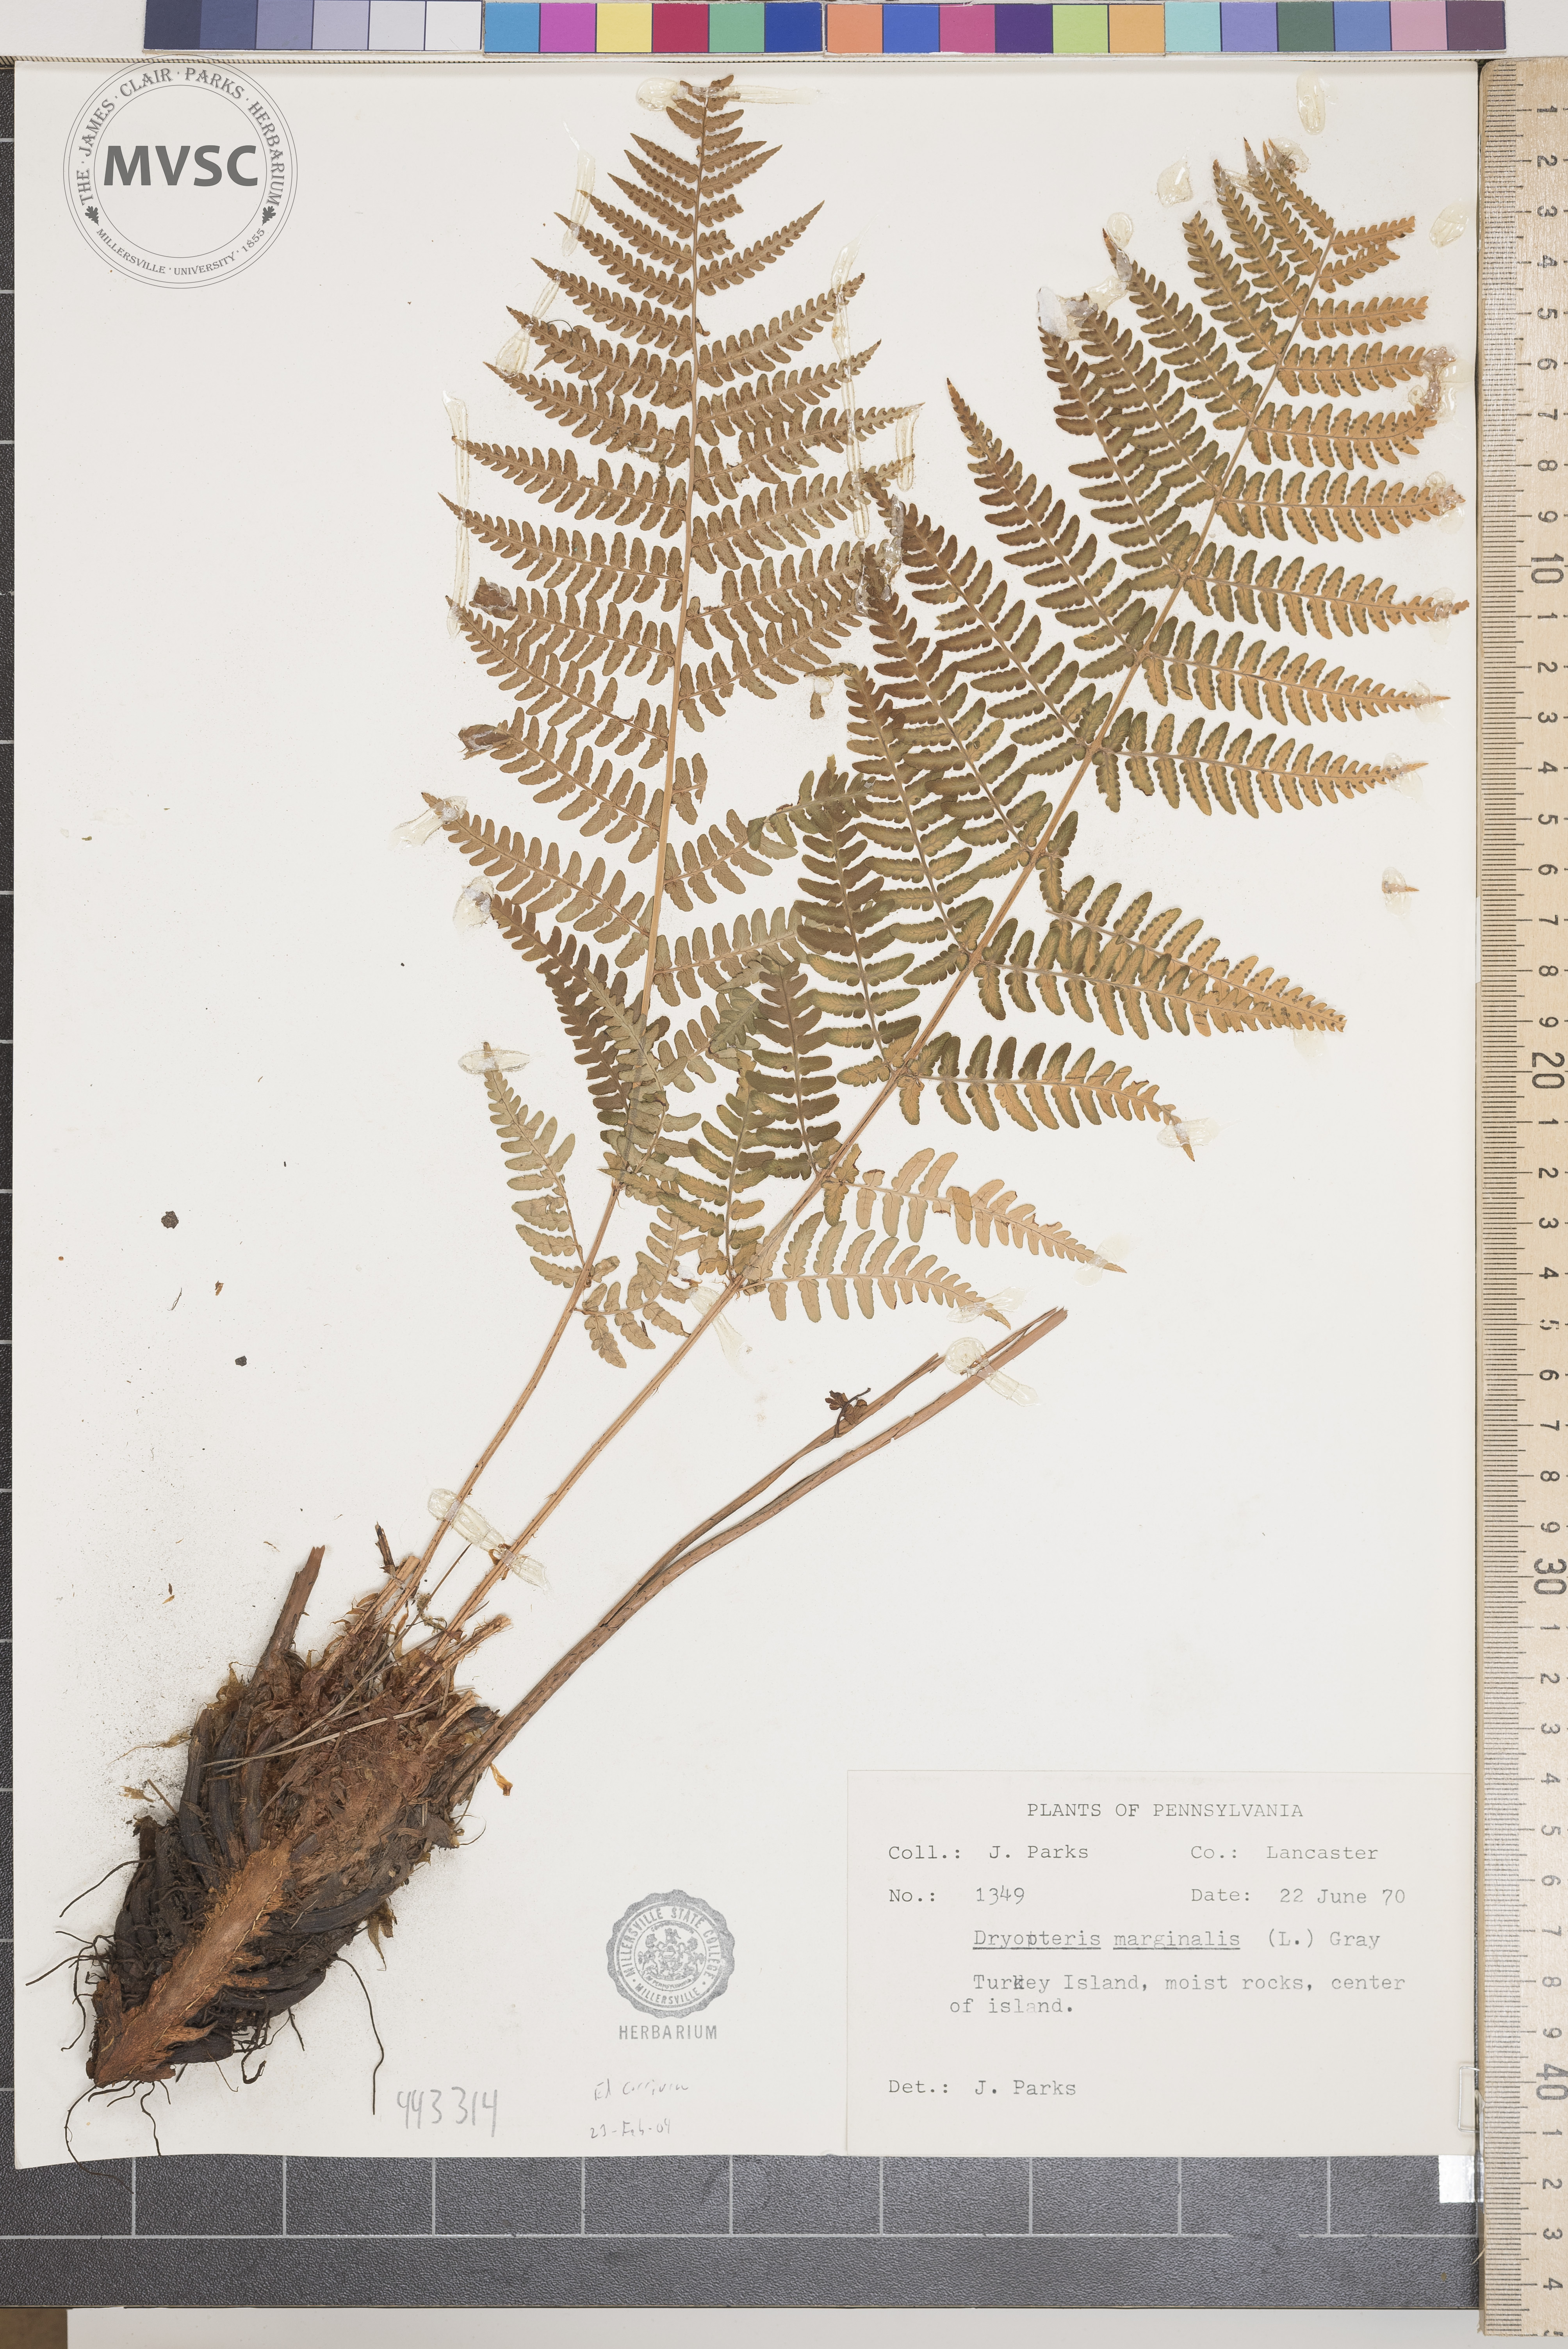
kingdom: Plantae
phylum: Tracheophyta
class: Polypodiopsida
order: Polypodiales
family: Dryopteridaceae
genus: Dryopteris
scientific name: Dryopteris marginalis
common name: Marginal wood fern
